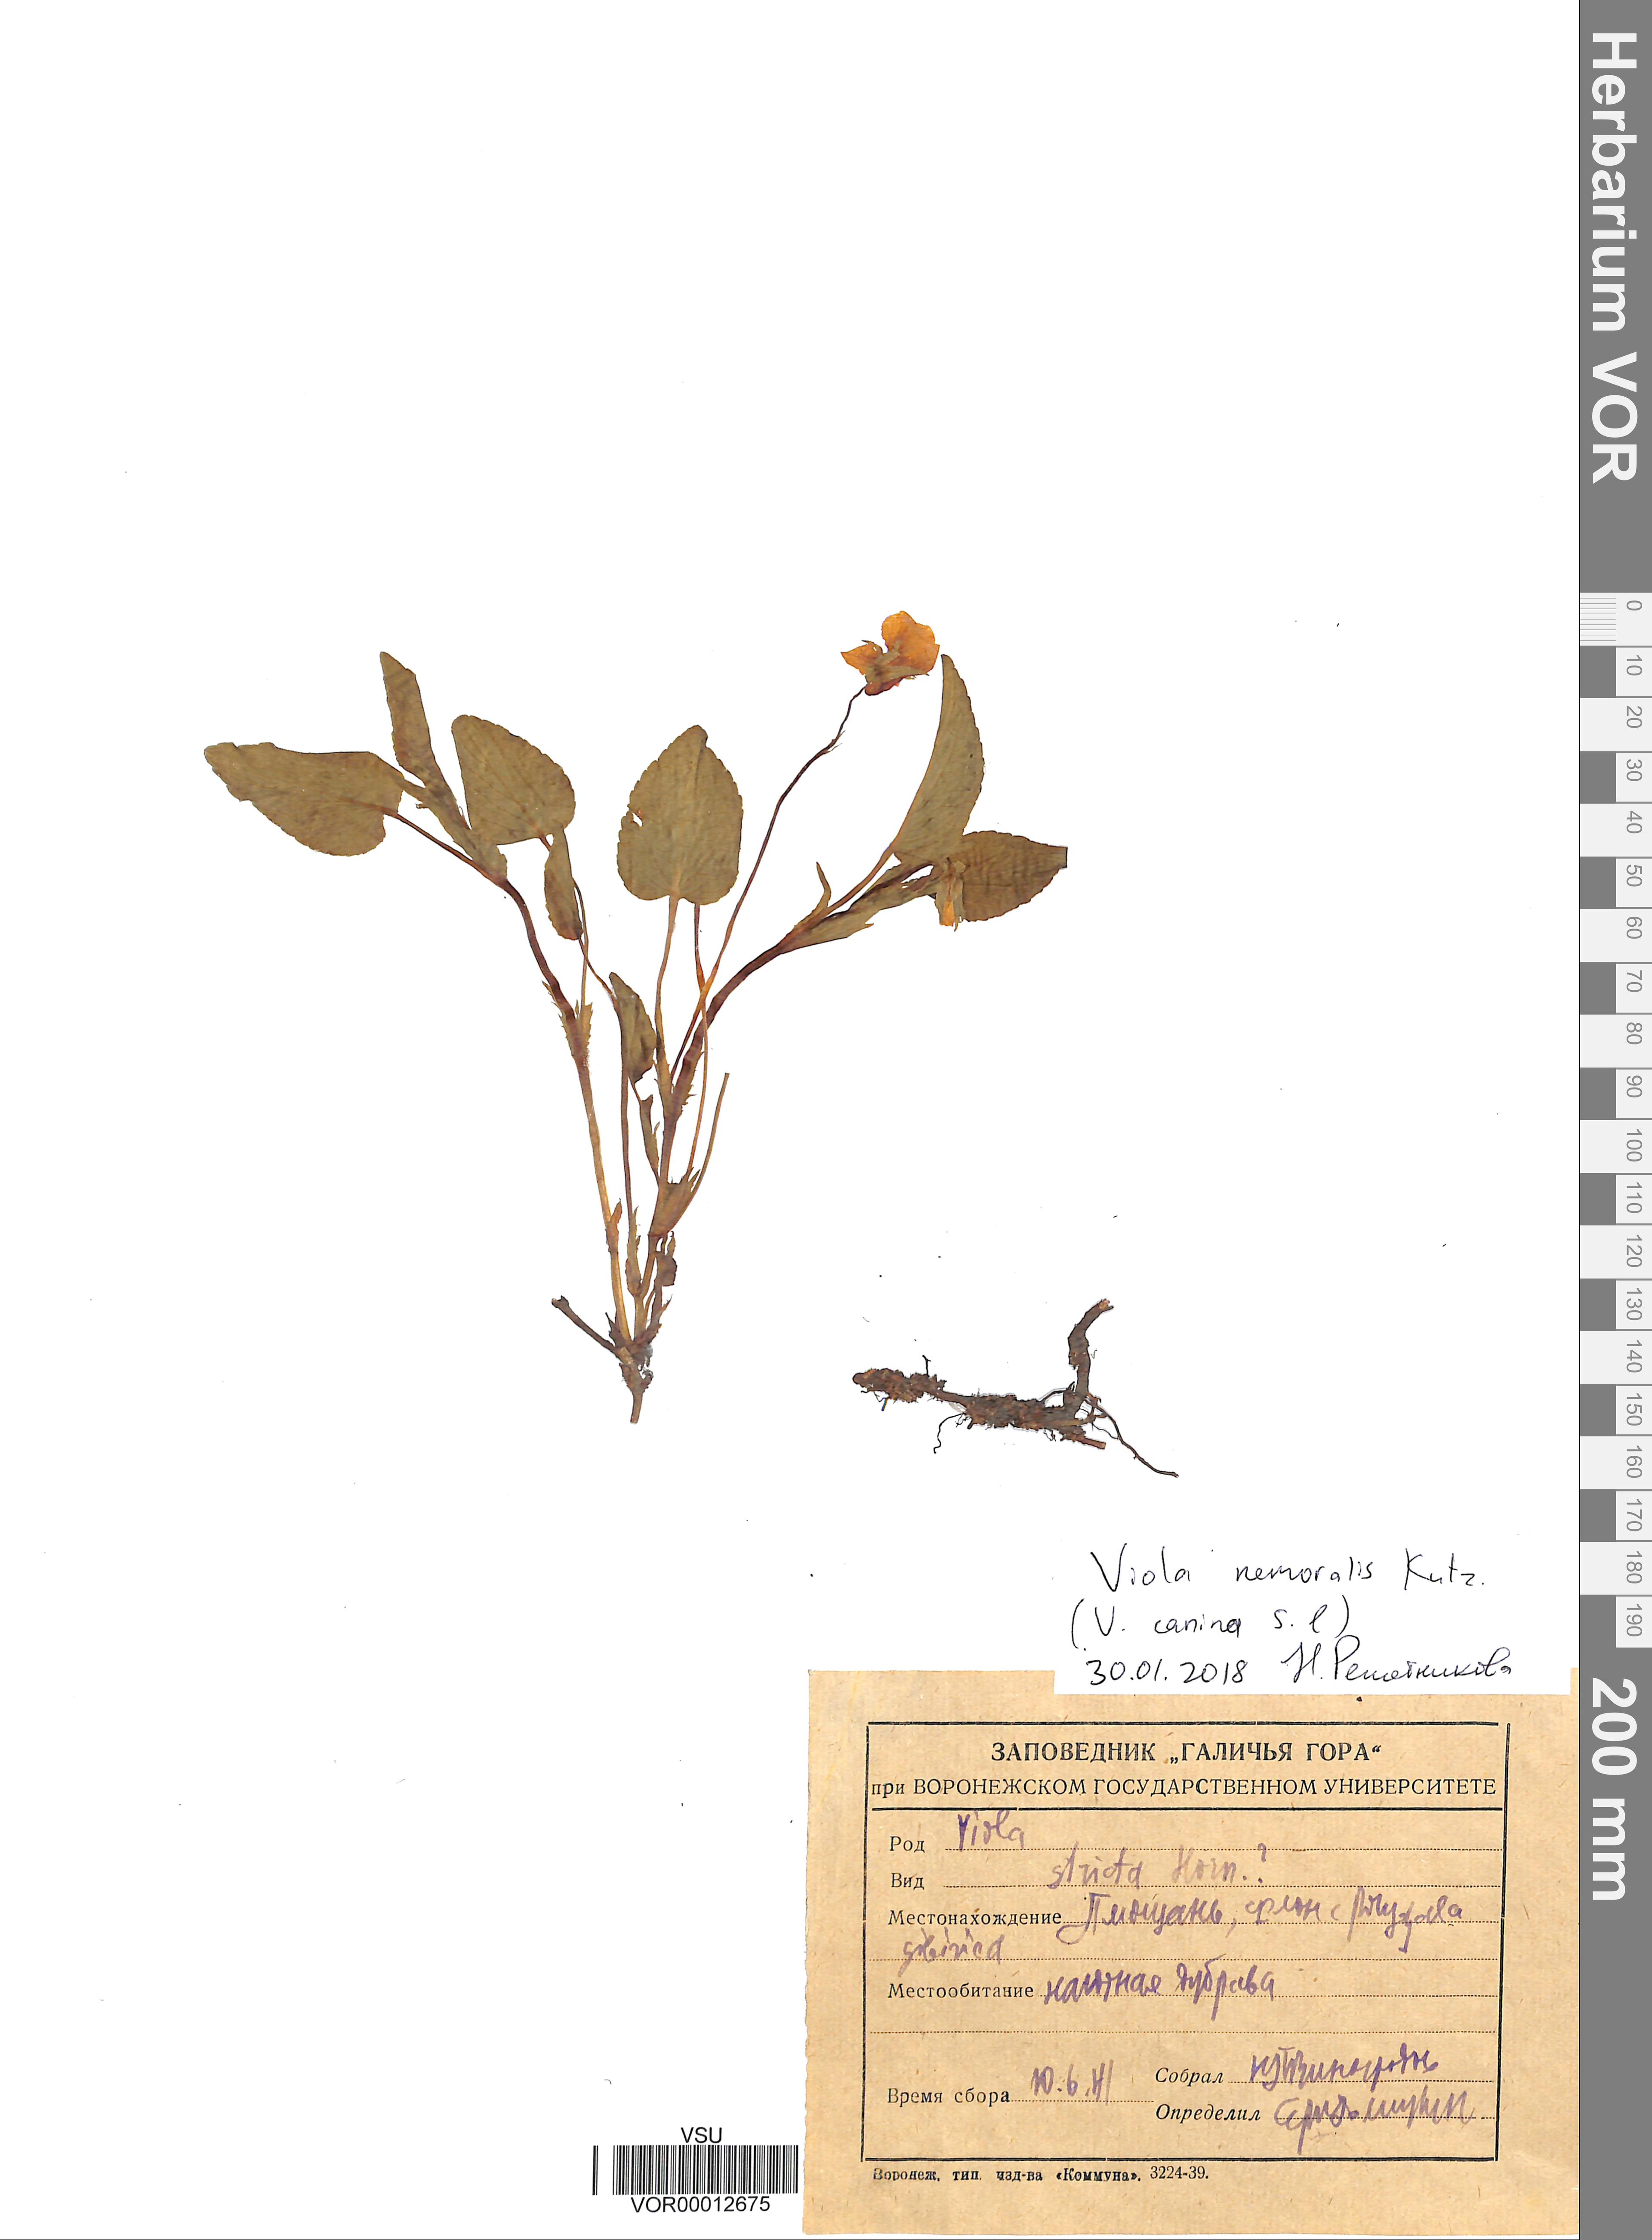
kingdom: Plantae
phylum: Tracheophyta
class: Magnoliopsida
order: Malpighiales
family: Violaceae
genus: Viola
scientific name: Viola
